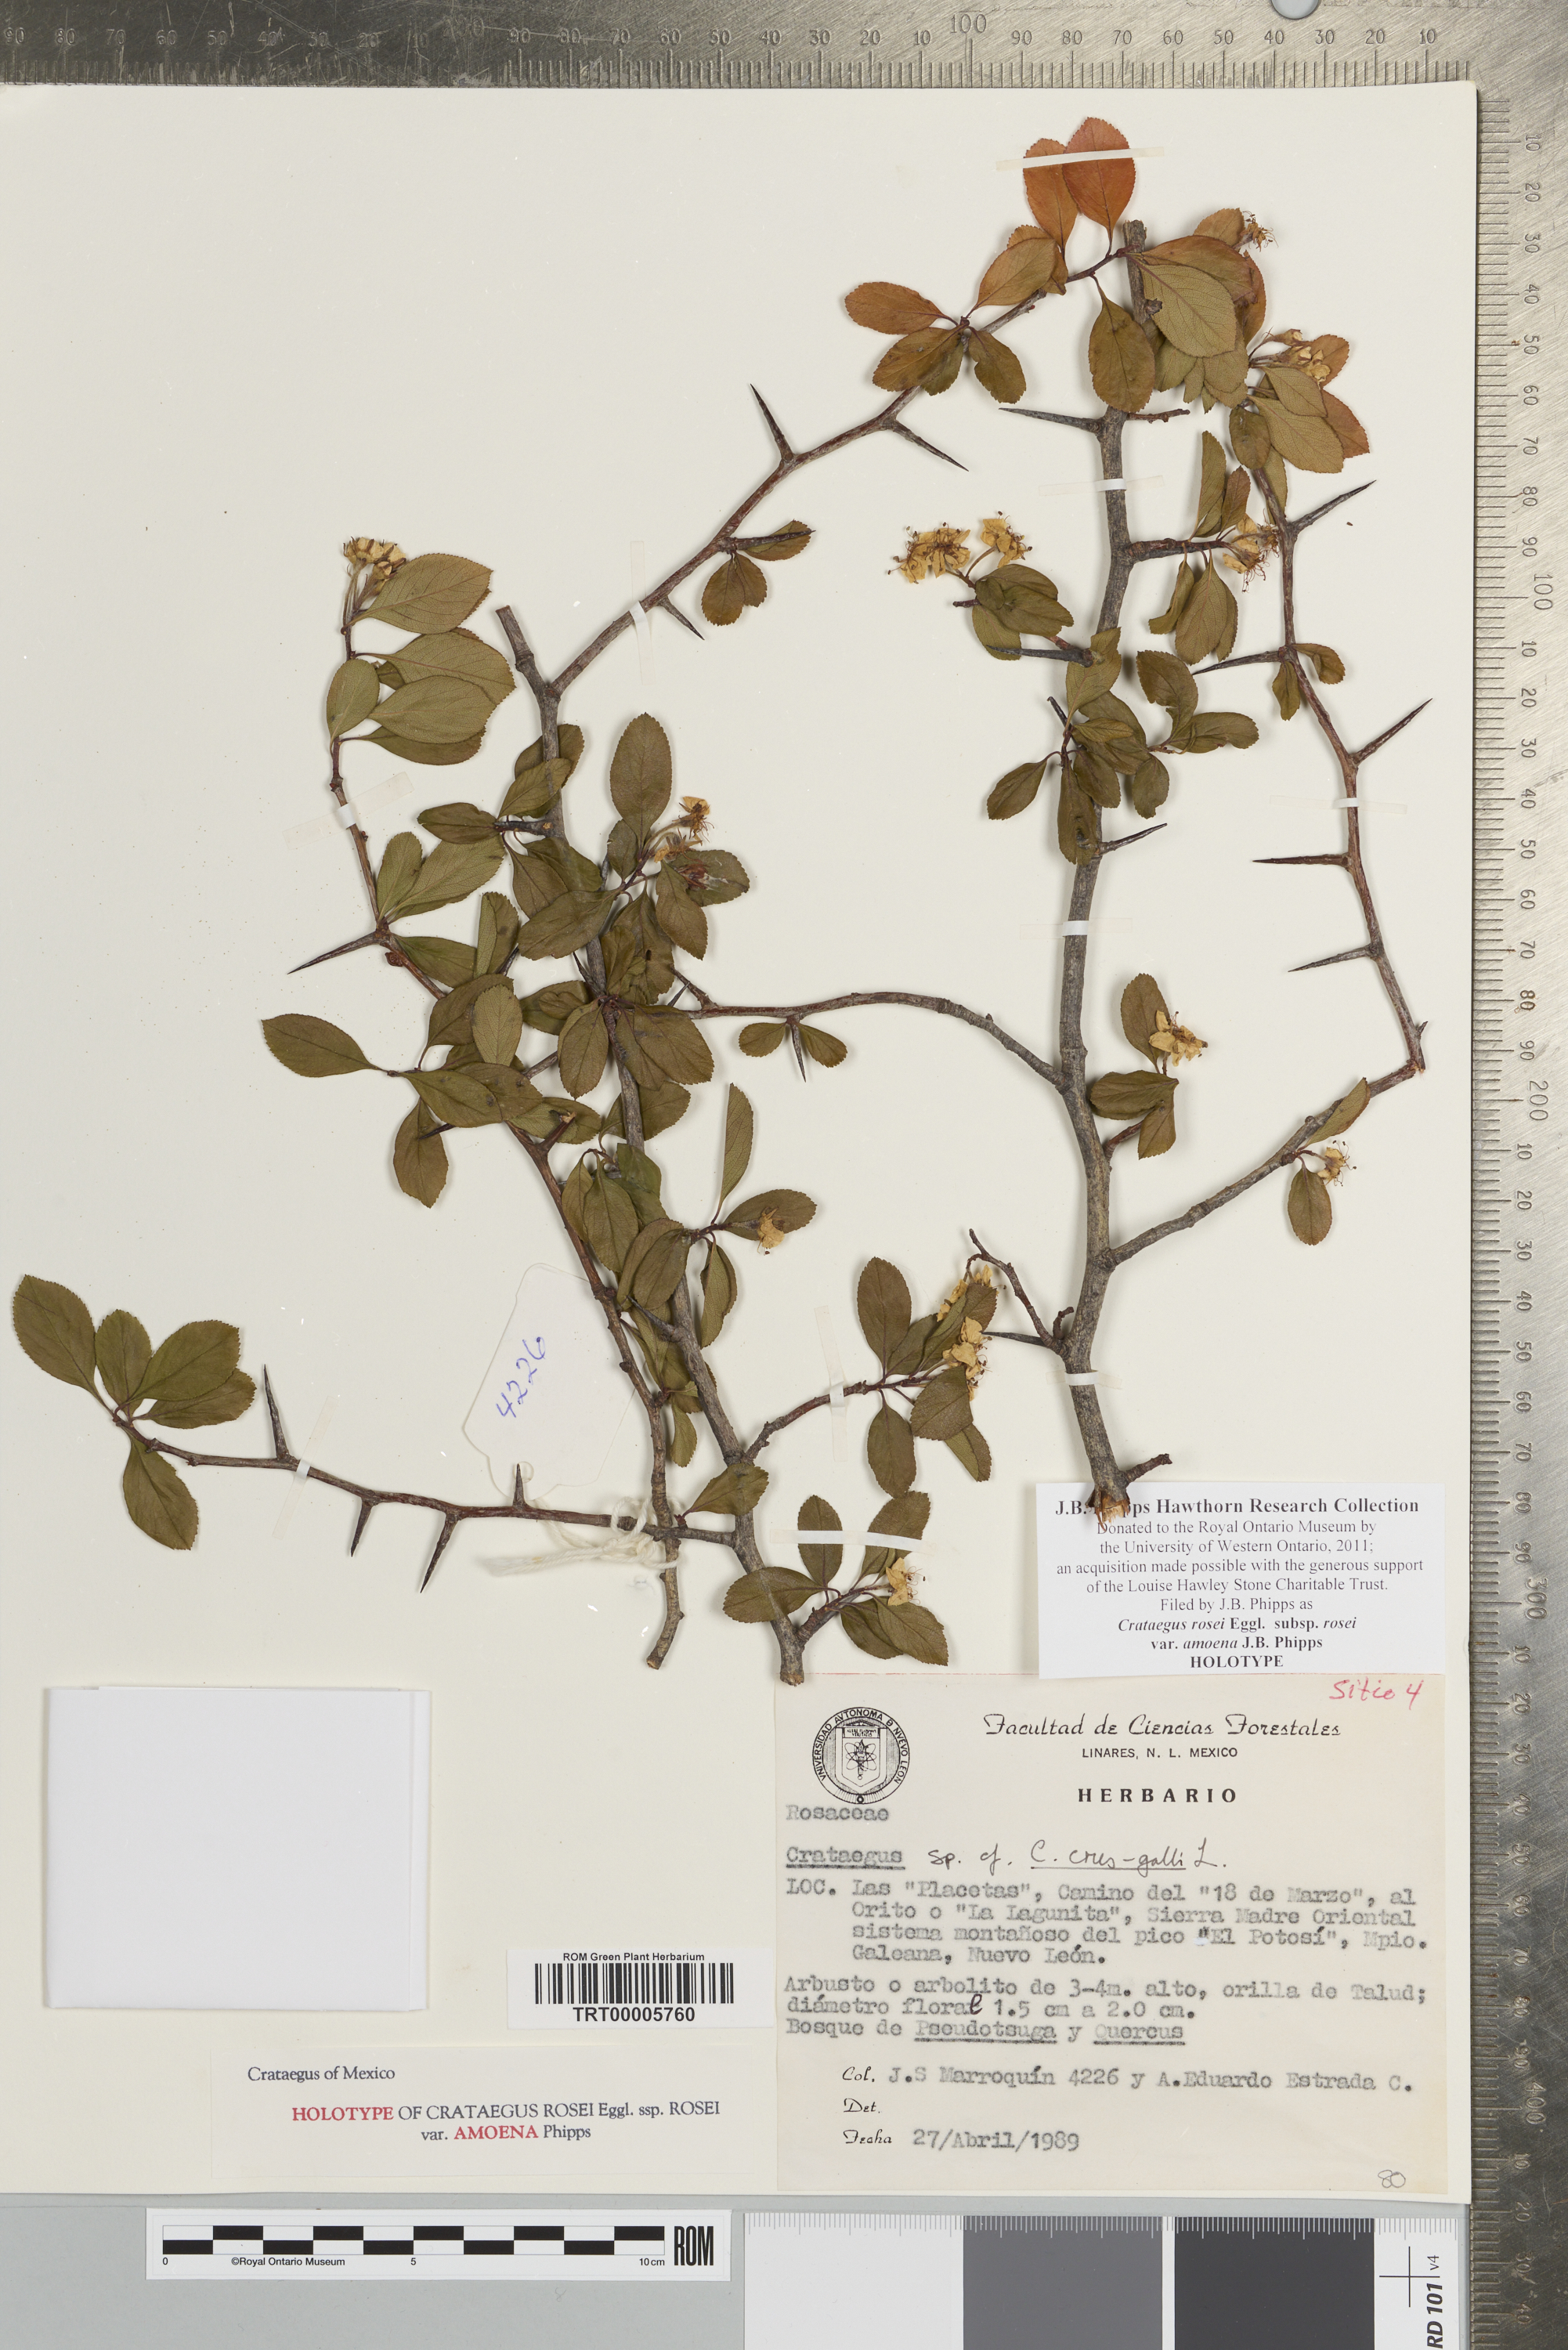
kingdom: Plantae
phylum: Tracheophyta
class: Magnoliopsida
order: Rosales
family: Rosaceae
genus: Crataegus
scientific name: Crataegus rosei
